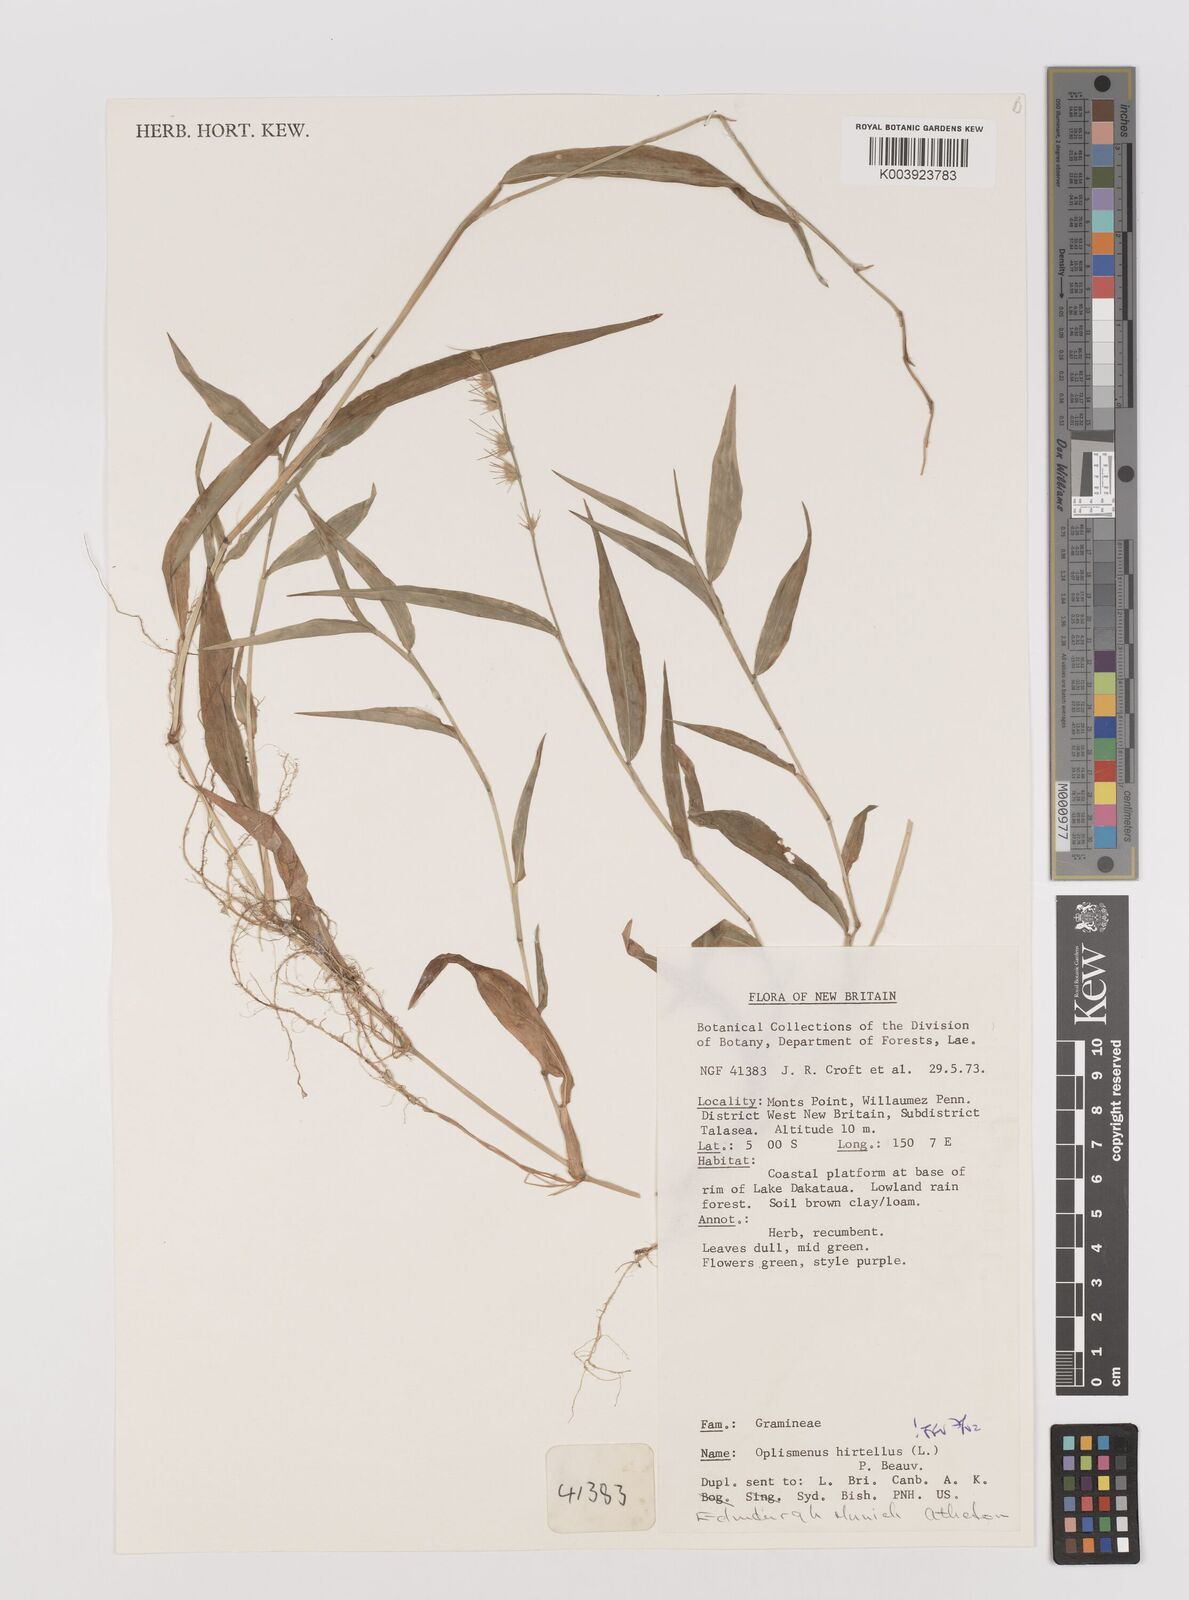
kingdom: Plantae
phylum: Tracheophyta
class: Liliopsida
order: Poales
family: Poaceae
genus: Oplismenus
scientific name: Oplismenus hirtellus
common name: Basketgrass
